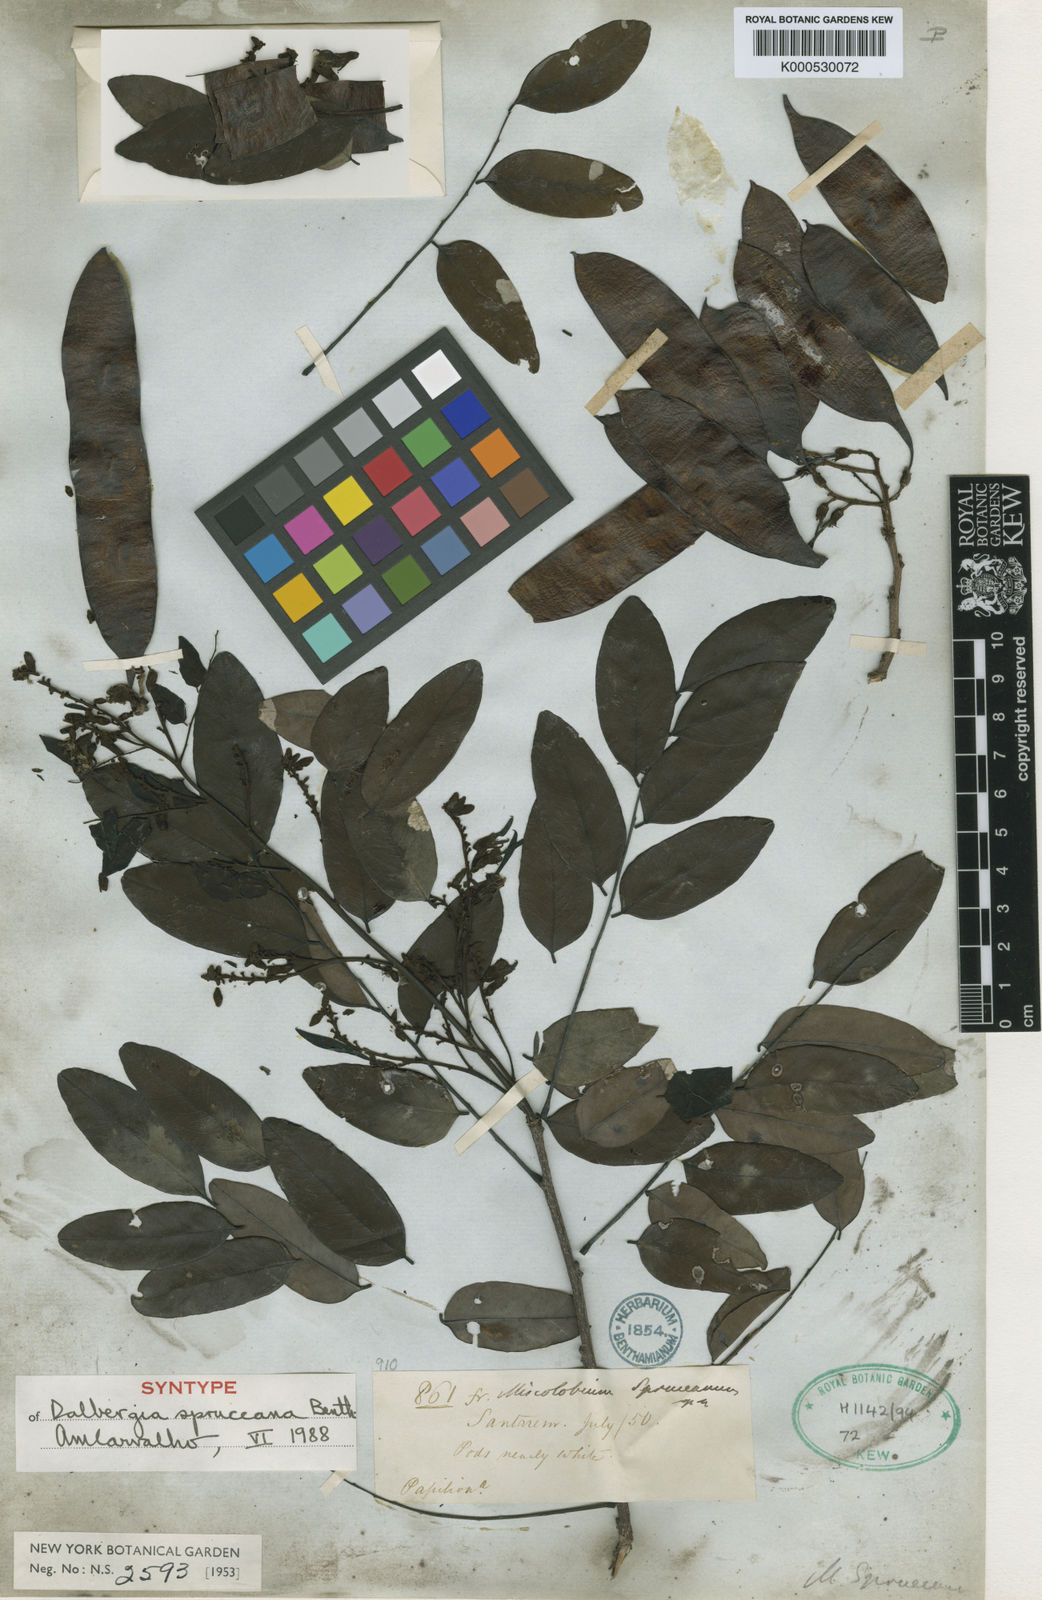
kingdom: Plantae
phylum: Tracheophyta
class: Magnoliopsida
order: Fabales
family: Fabaceae
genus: Dalbergia
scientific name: Dalbergia spruceana
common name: Amazon rosewood
